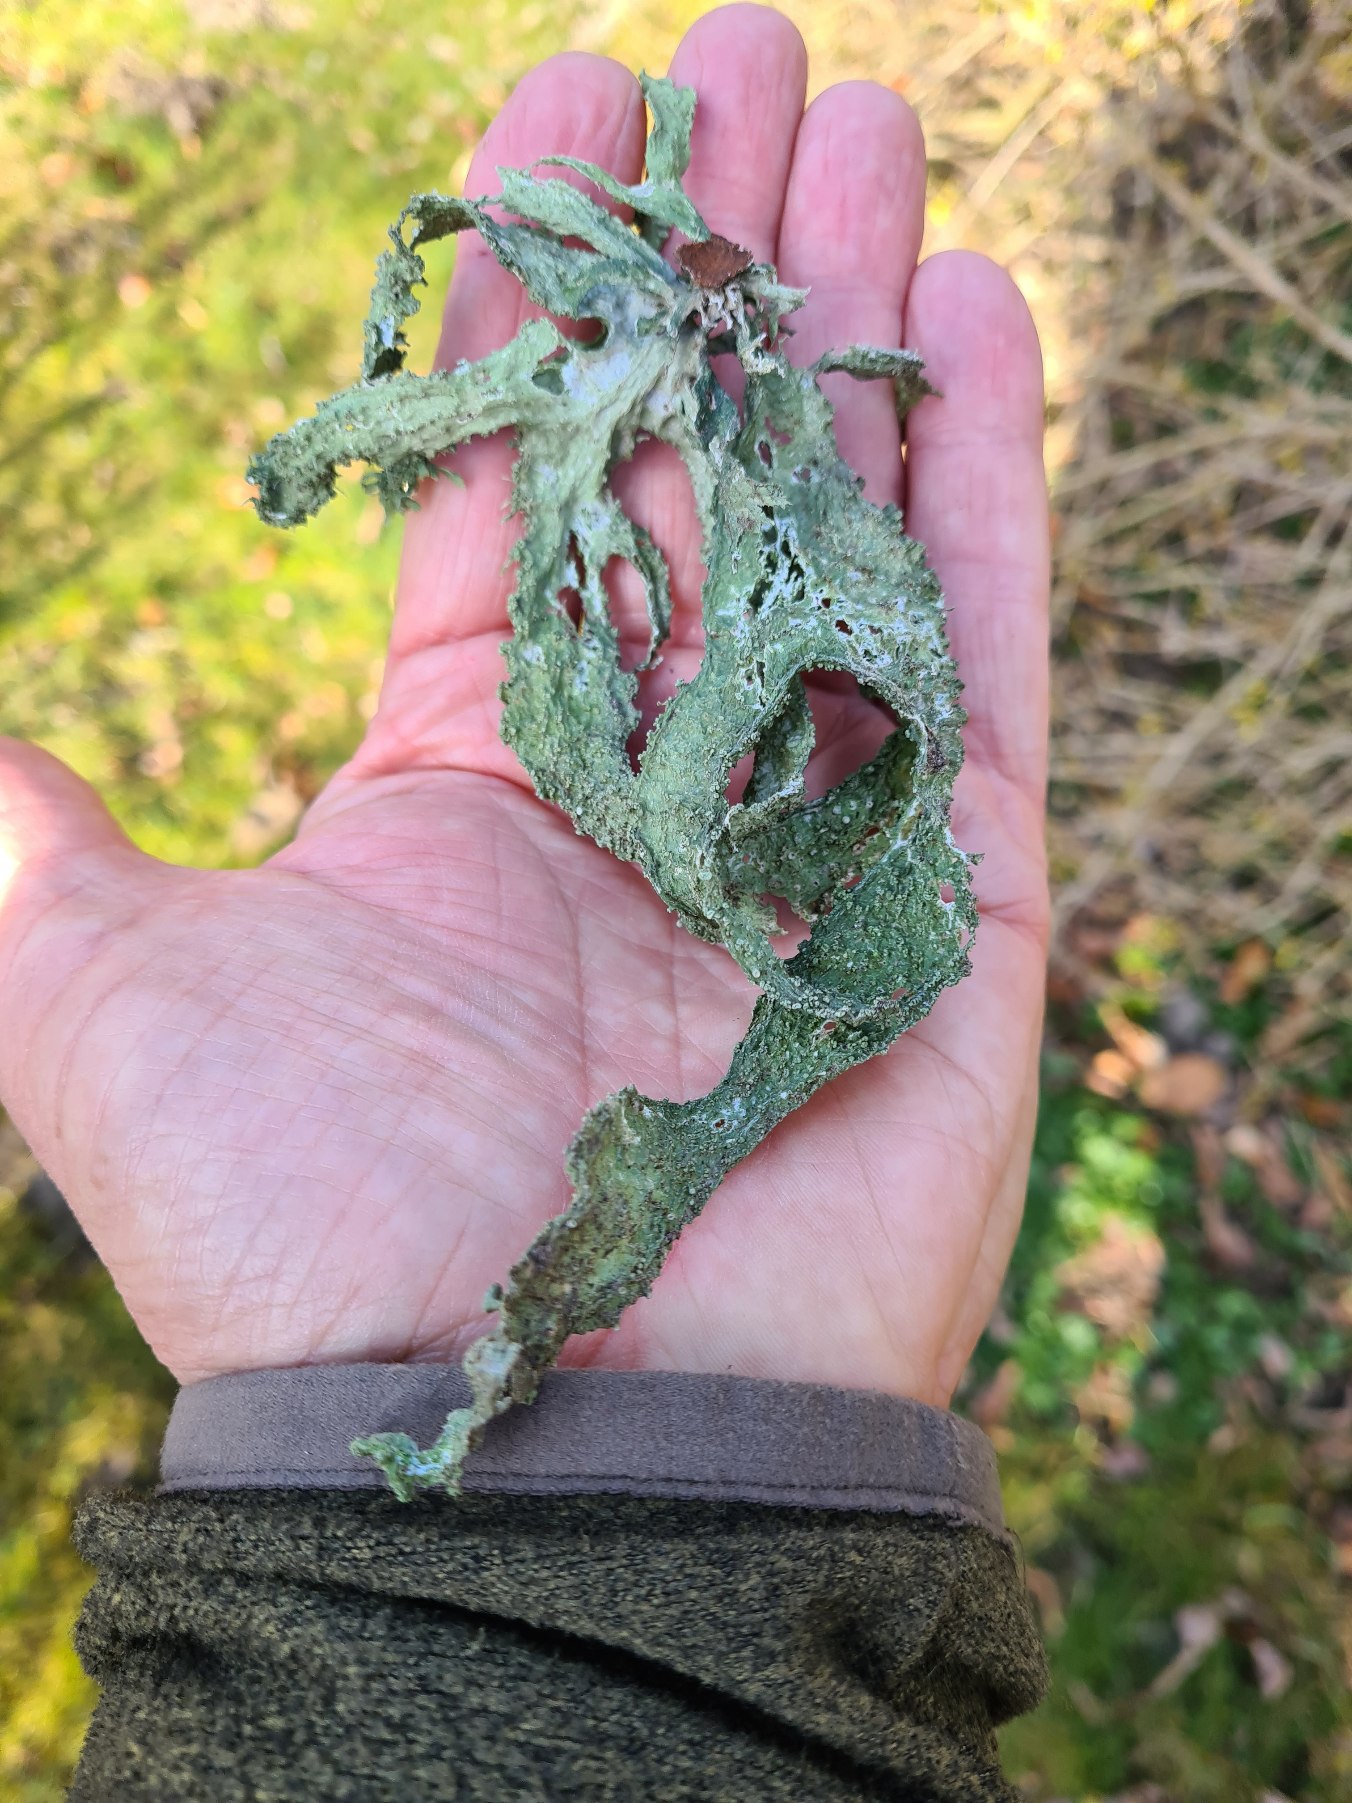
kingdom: Fungi
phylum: Ascomycota
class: Lecanoromycetes
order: Lecanorales
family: Ramalinaceae
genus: Ramalina
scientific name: Ramalina fraxinea
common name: Stor grenlav
